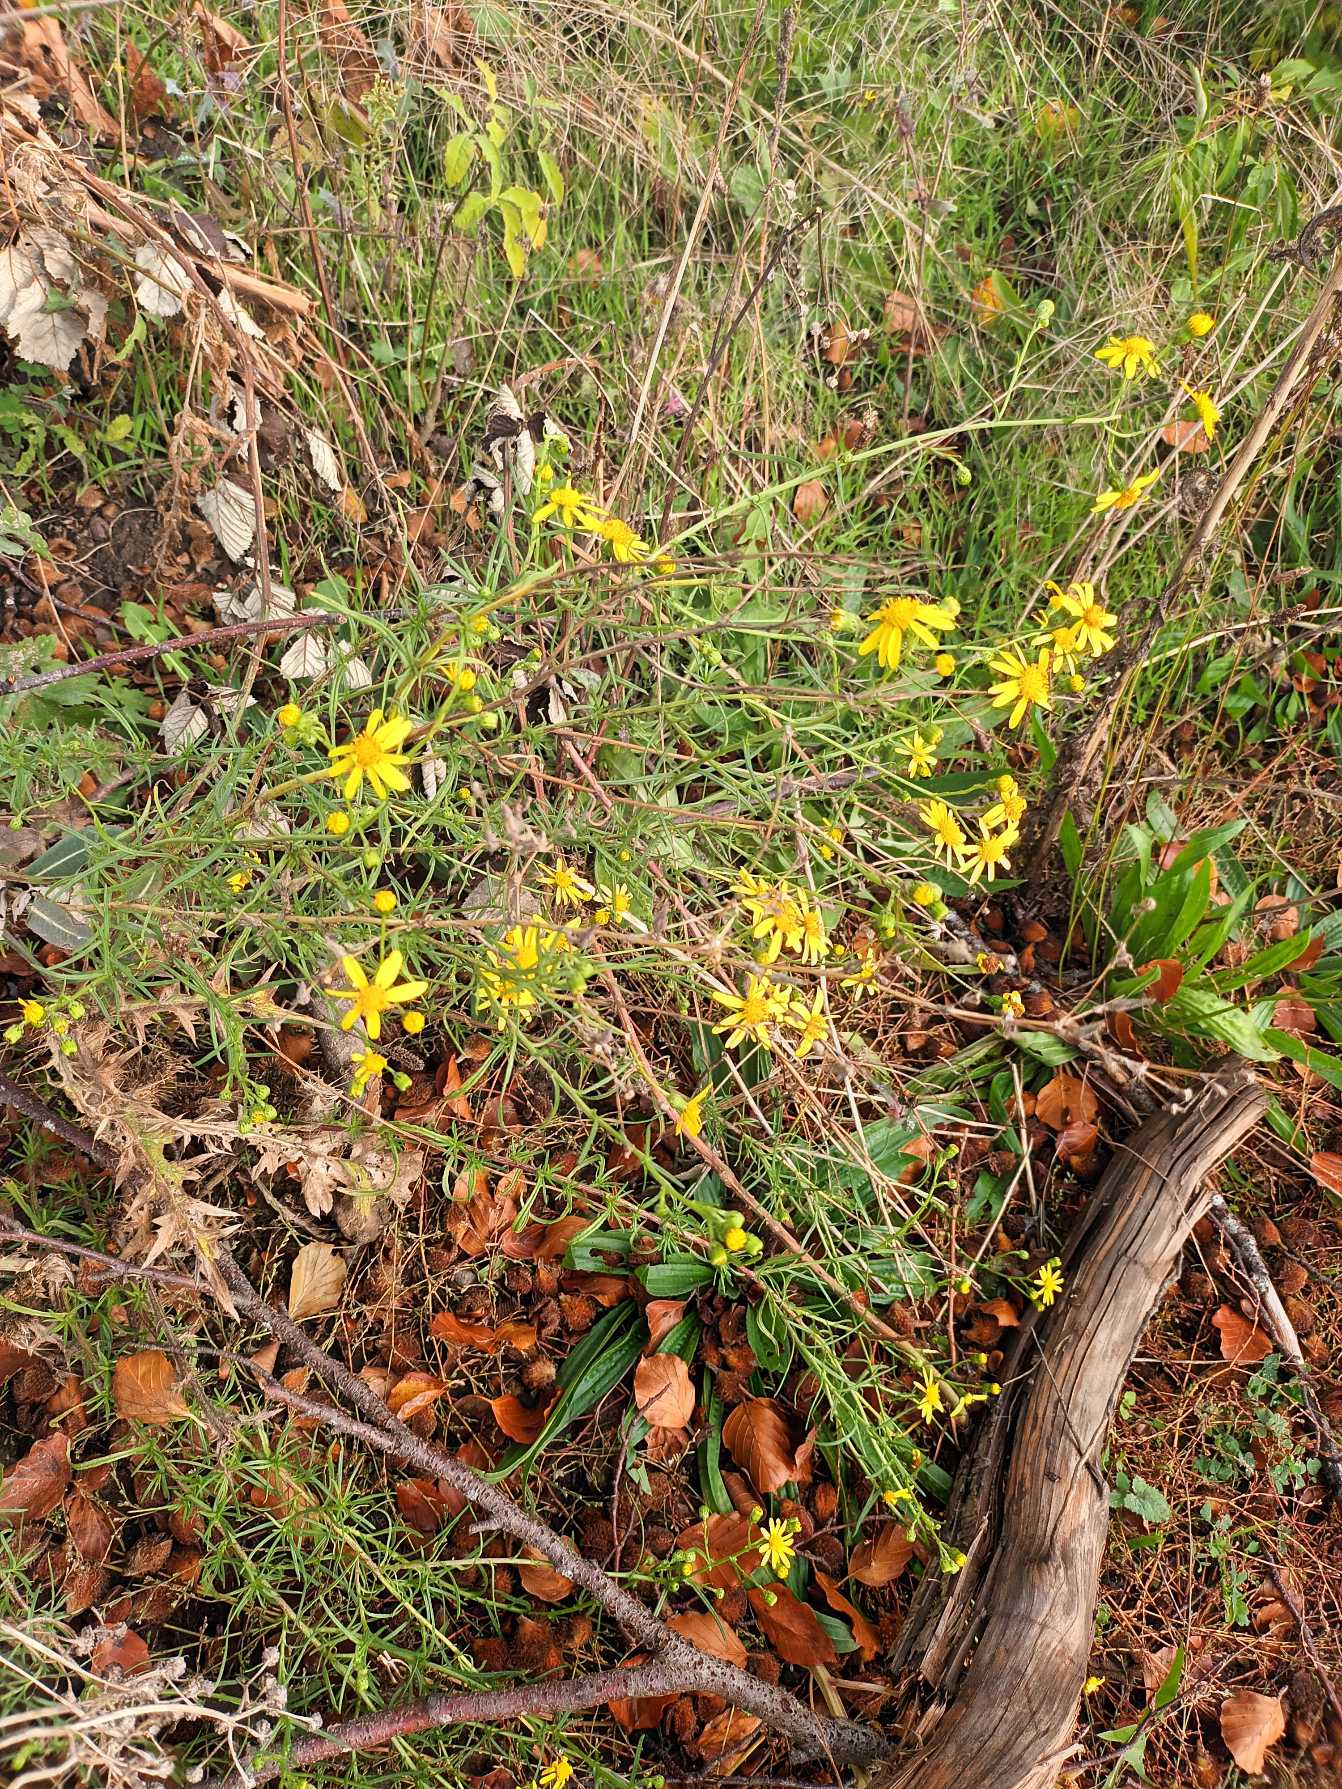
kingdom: Plantae
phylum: Tracheophyta
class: Magnoliopsida
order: Asterales
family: Asteraceae
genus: Senecio
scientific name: Senecio inaequidens
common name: Smalbladet brandbæger
